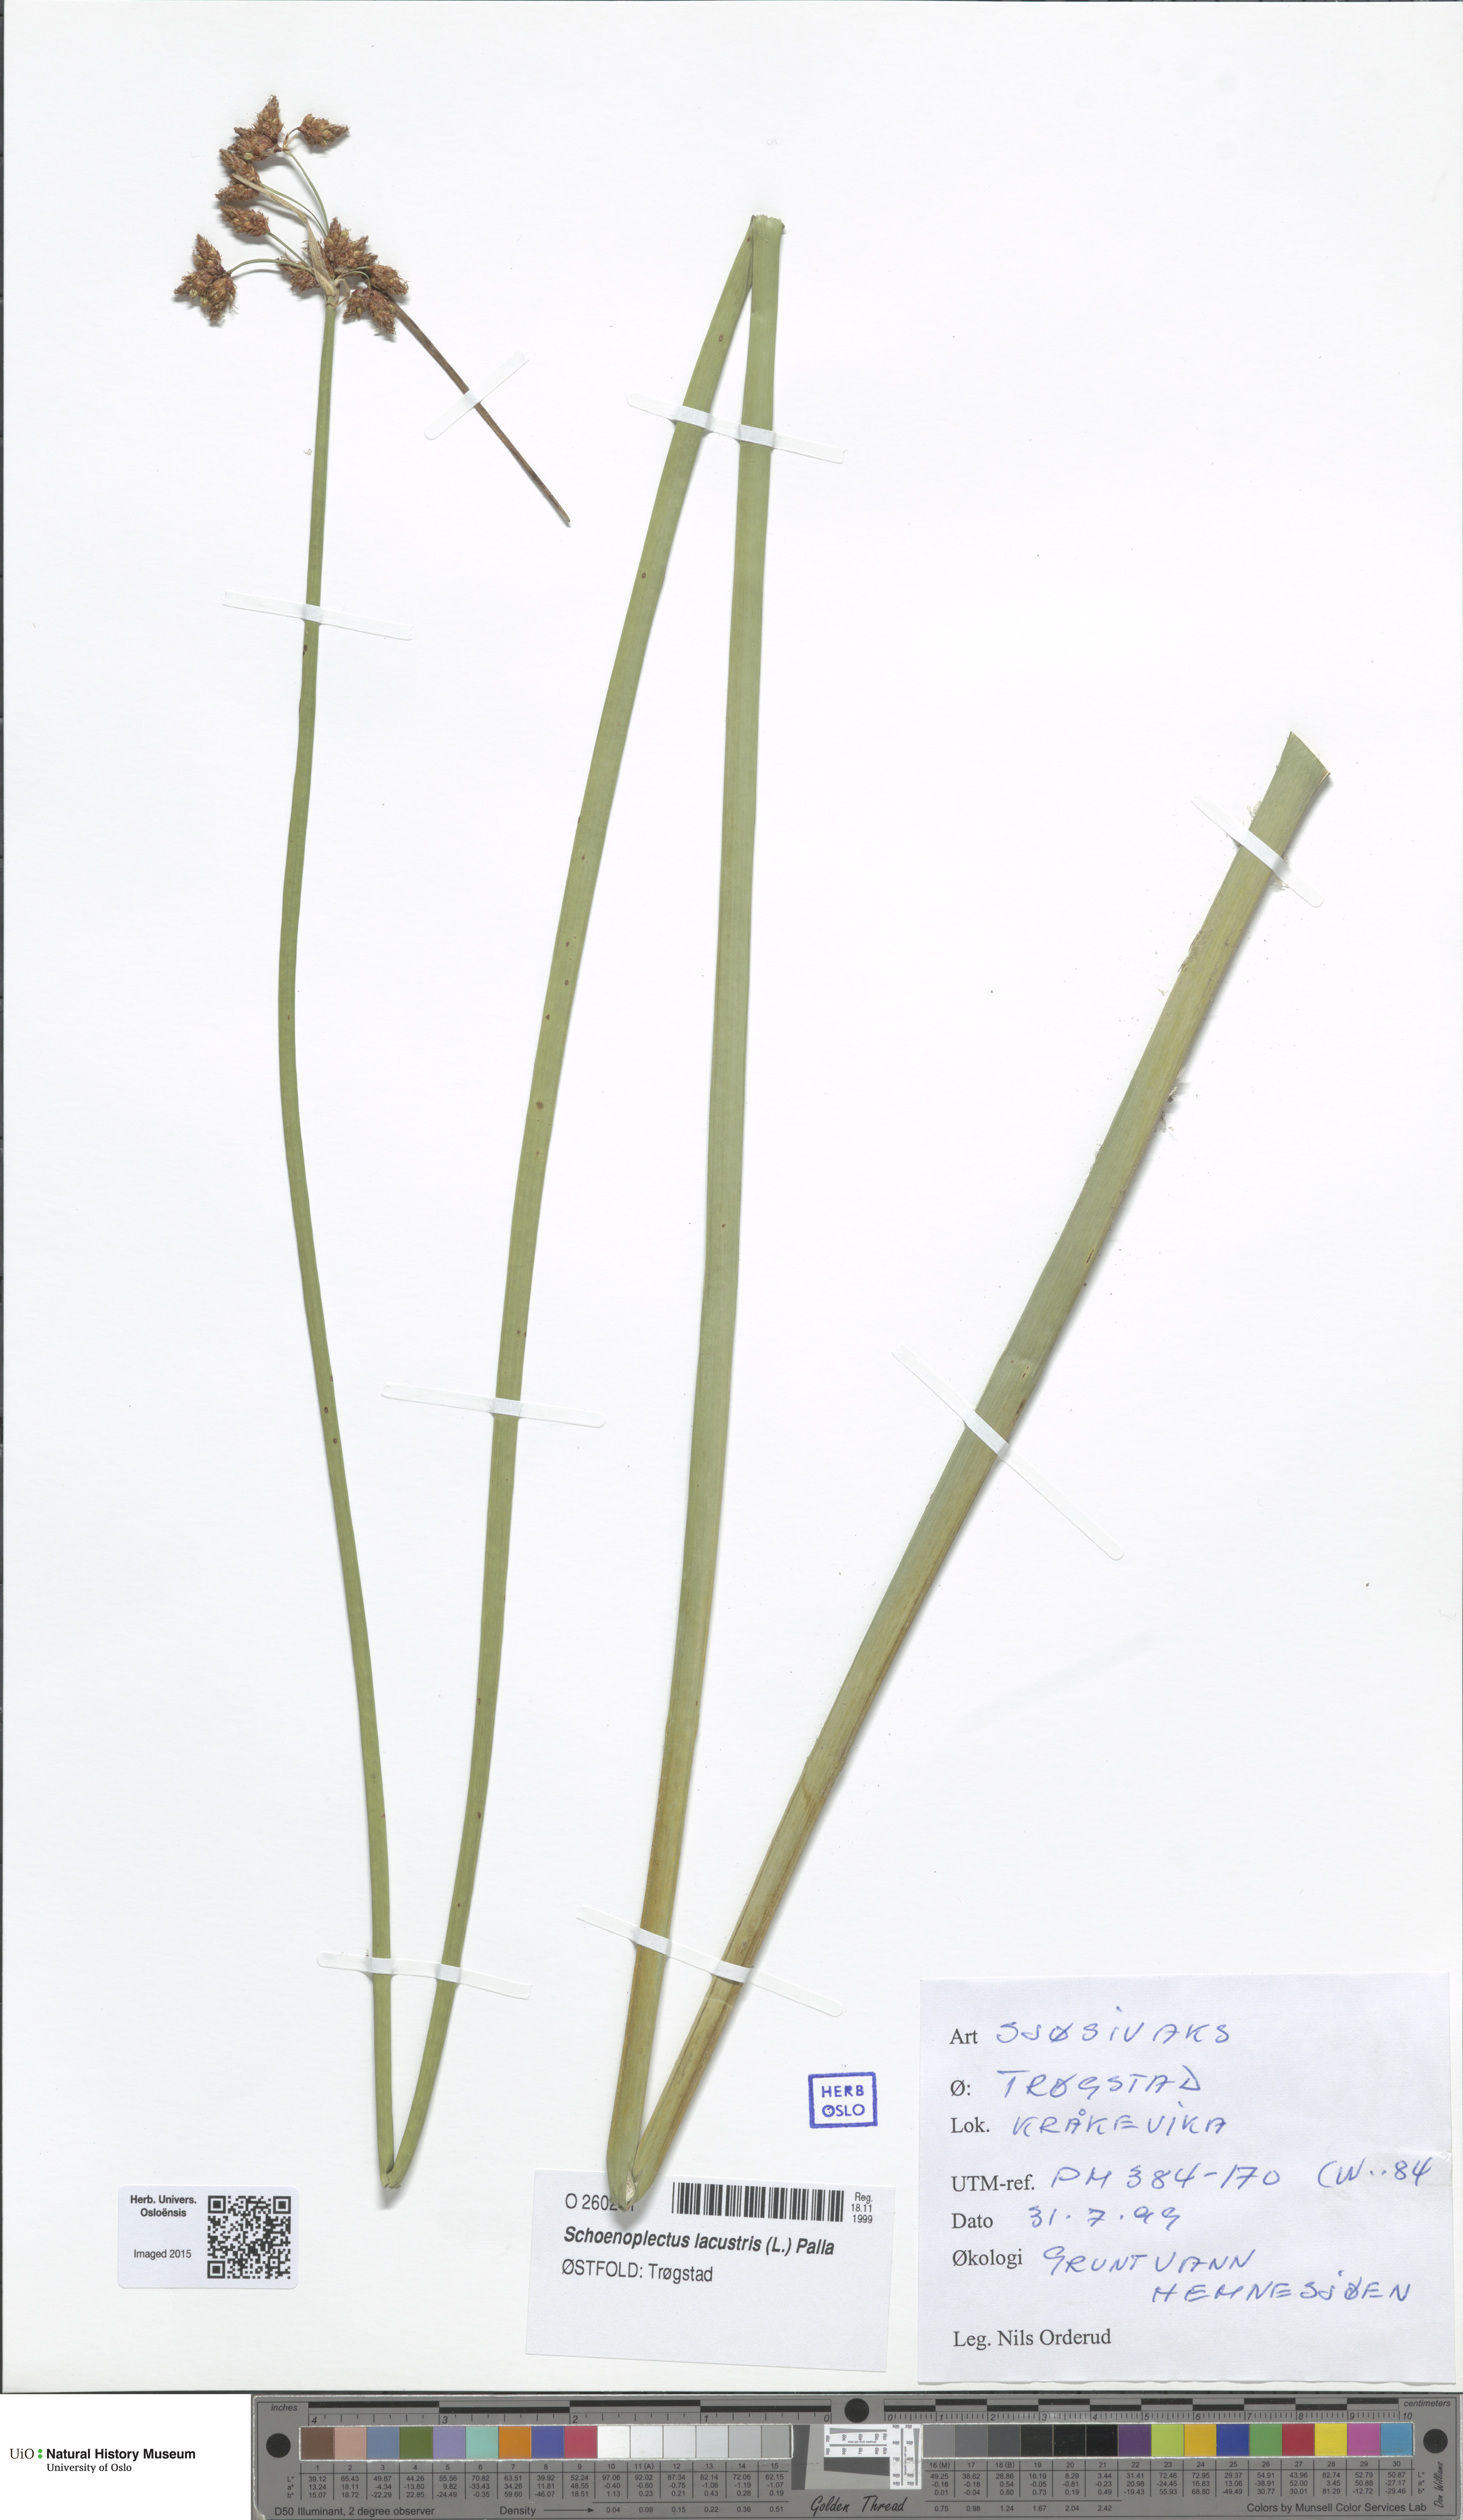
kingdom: Plantae
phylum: Tracheophyta
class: Liliopsida
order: Poales
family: Cyperaceae
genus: Schoenoplectus
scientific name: Schoenoplectus lacustris
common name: Common club-rush
